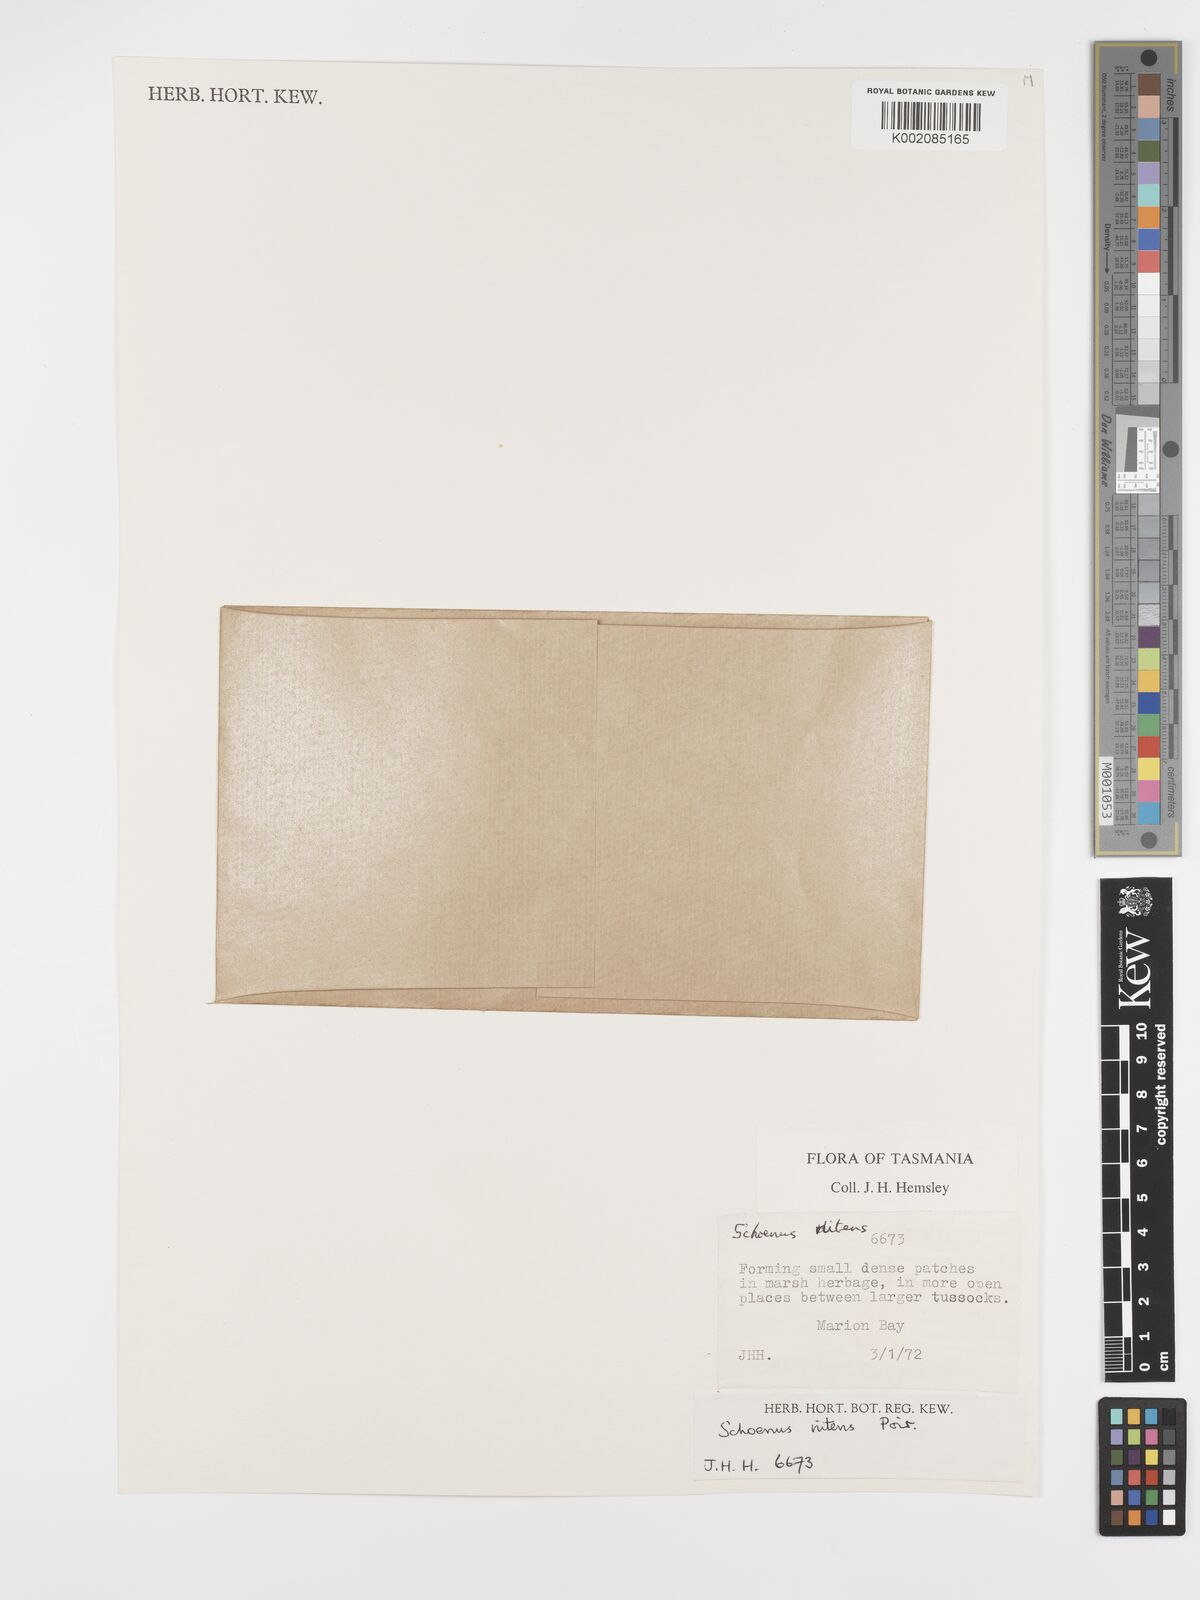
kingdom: Plantae
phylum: Tracheophyta
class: Liliopsida
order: Poales
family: Cyperaceae
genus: Schoenus
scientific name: Schoenus nitens
